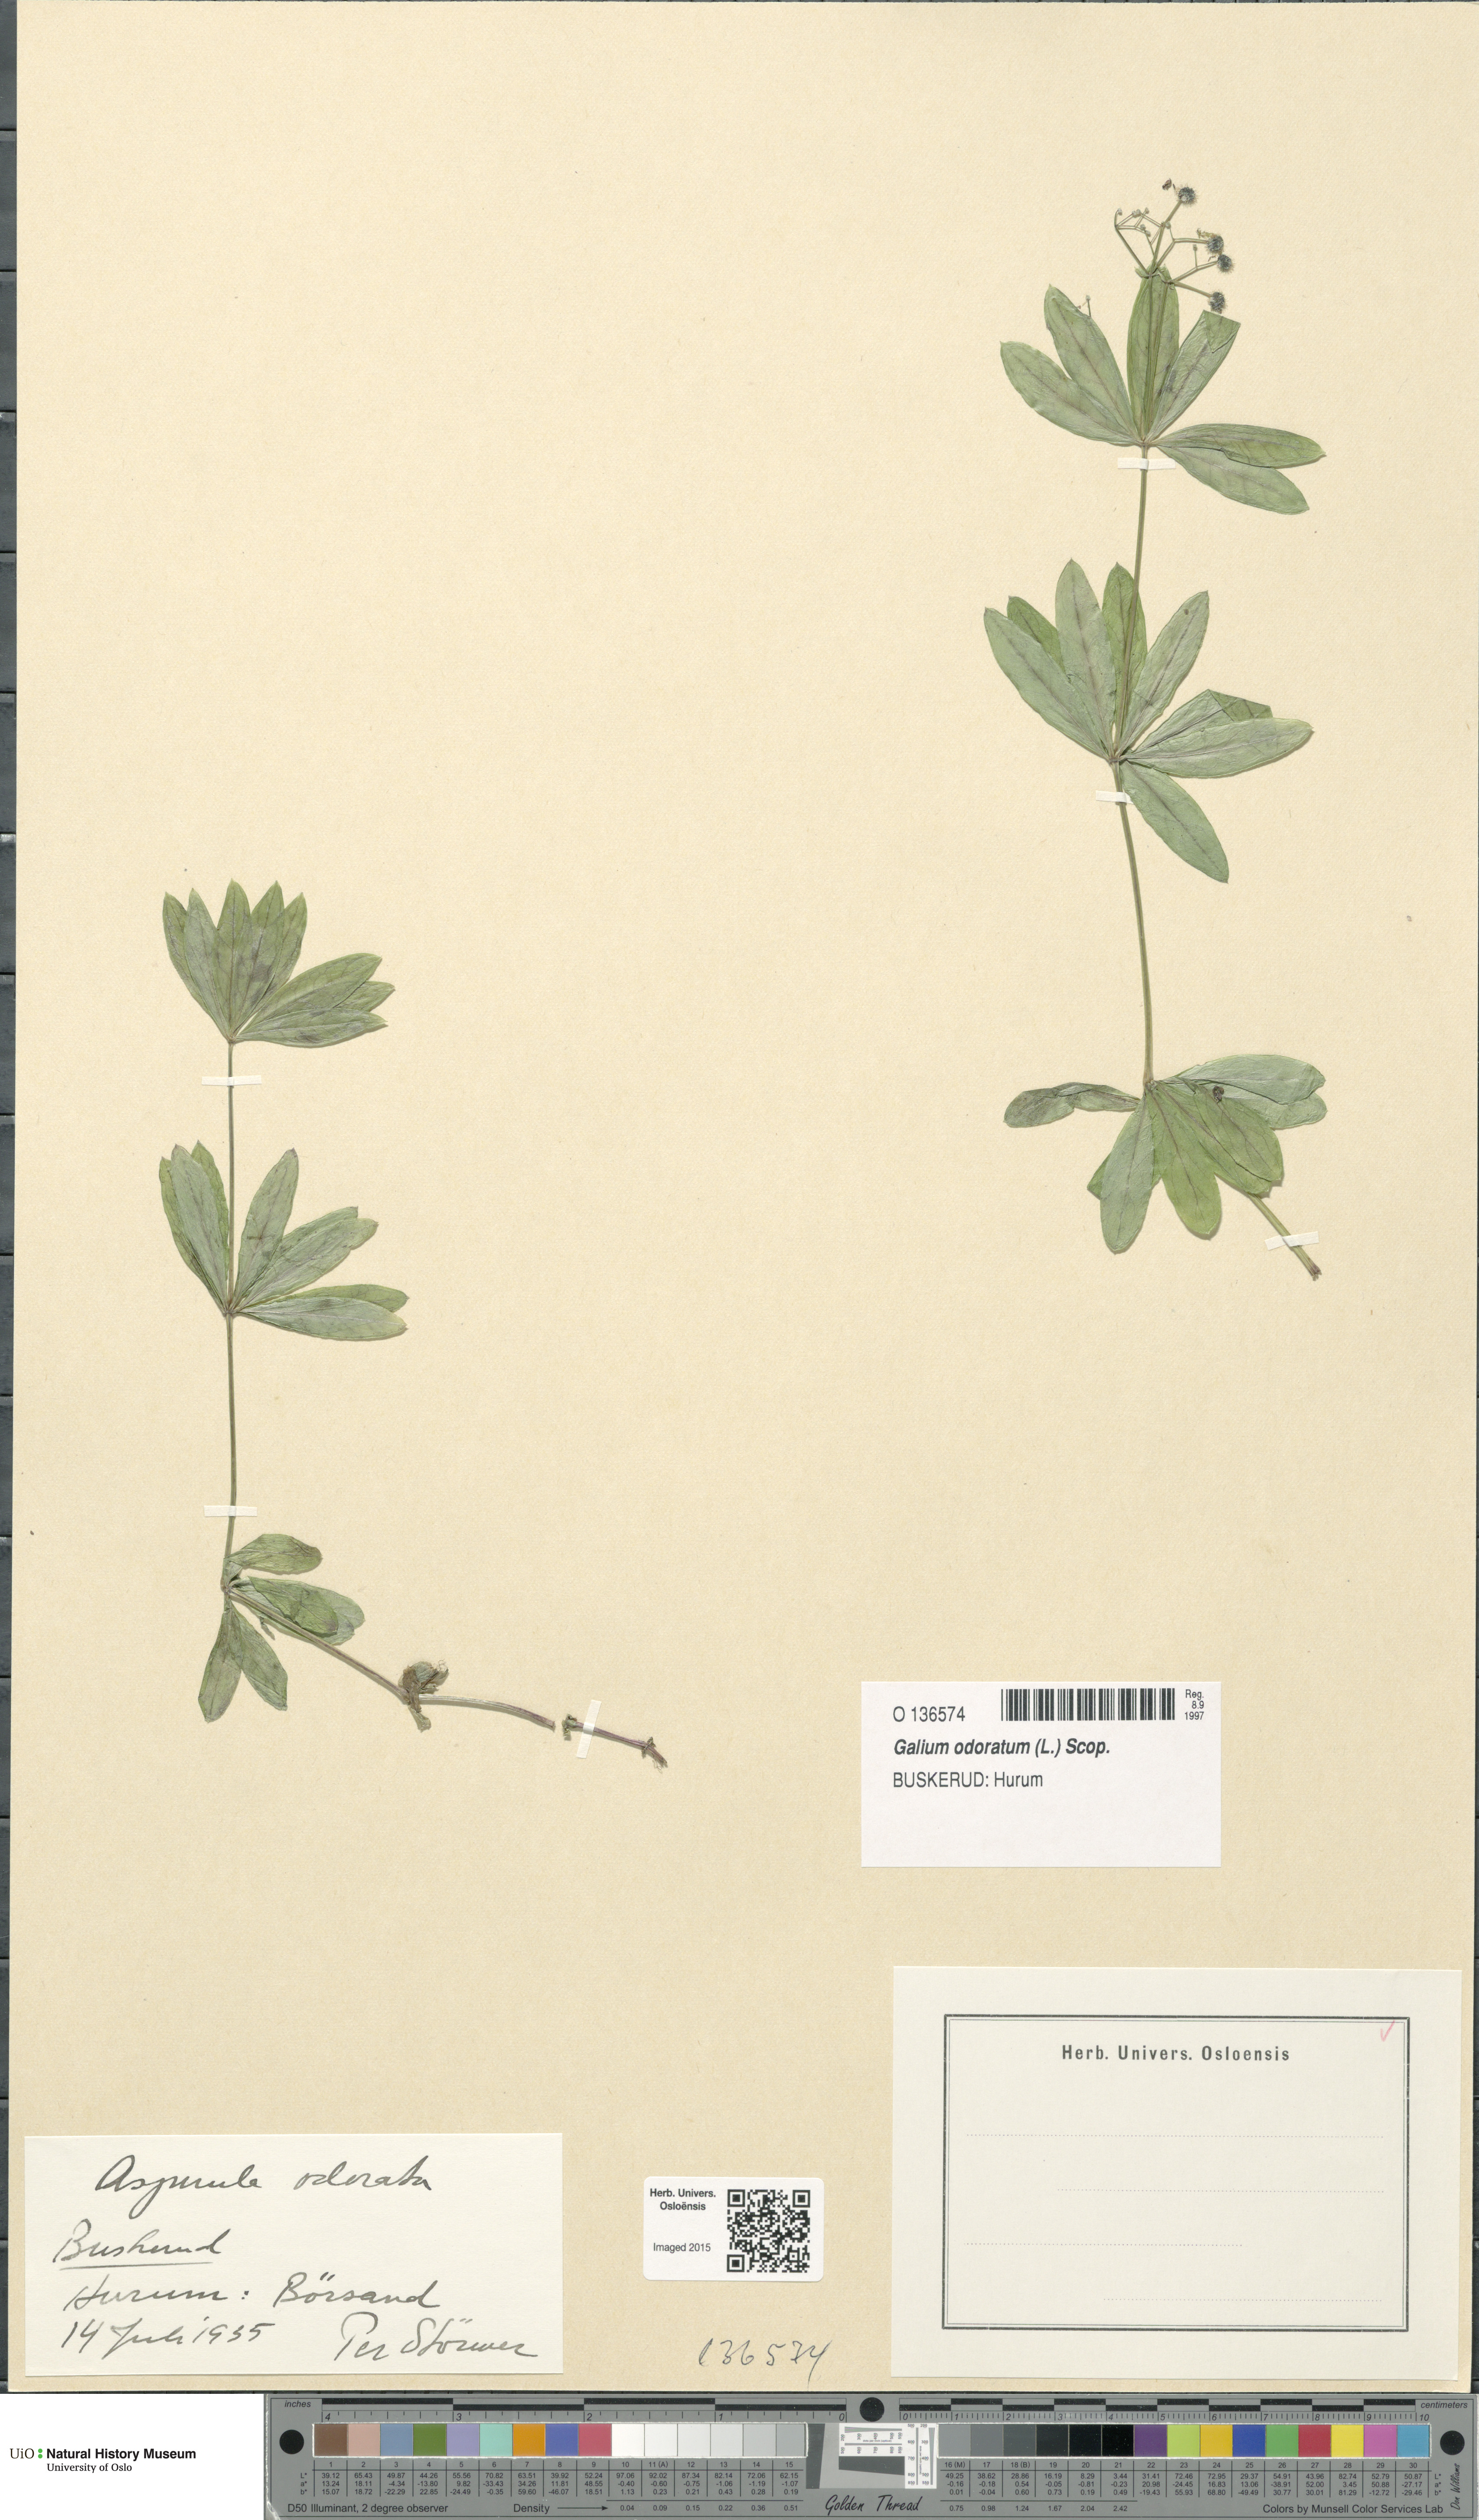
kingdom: Plantae
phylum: Tracheophyta
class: Magnoliopsida
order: Gentianales
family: Rubiaceae
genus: Galium
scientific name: Galium odoratum
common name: Sweet woodruff
